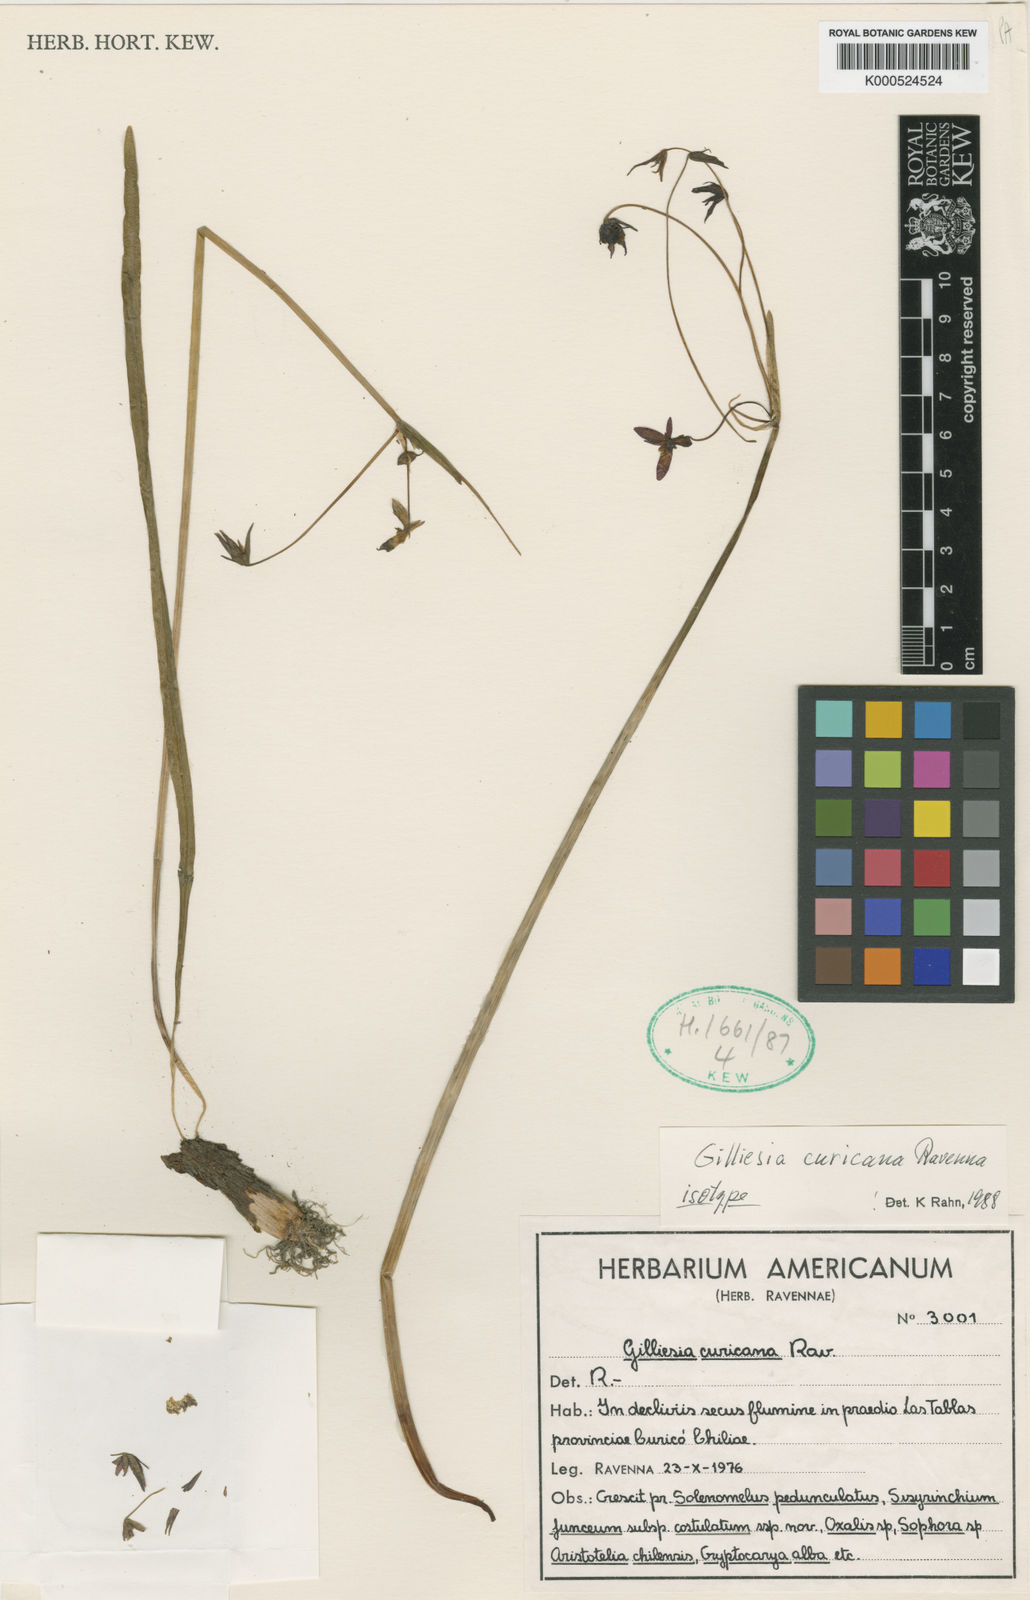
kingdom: Plantae
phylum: Tracheophyta
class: Liliopsida
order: Asparagales
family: Amaryllidaceae
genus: Gilliesia
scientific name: Gilliesia curicana
